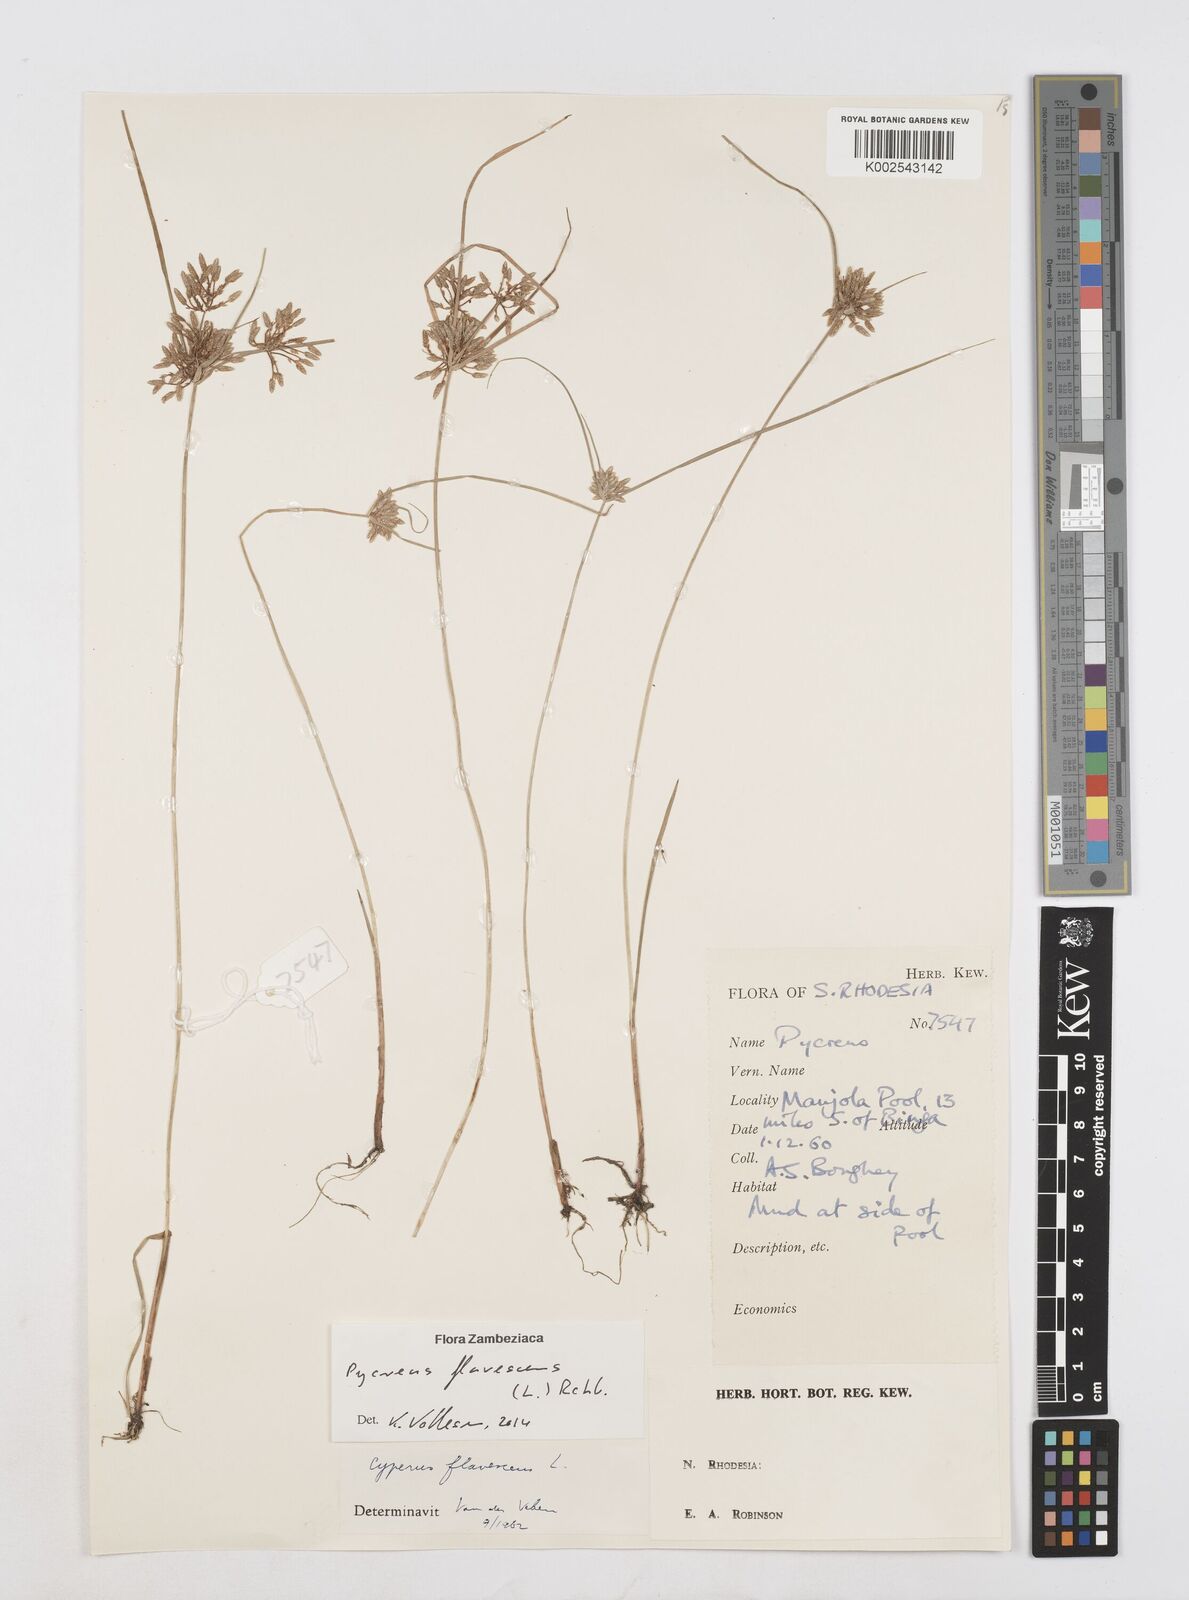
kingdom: Plantae
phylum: Tracheophyta
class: Liliopsida
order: Poales
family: Cyperaceae
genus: Cyperus
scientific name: Cyperus flavescens
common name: Yellow galingale
